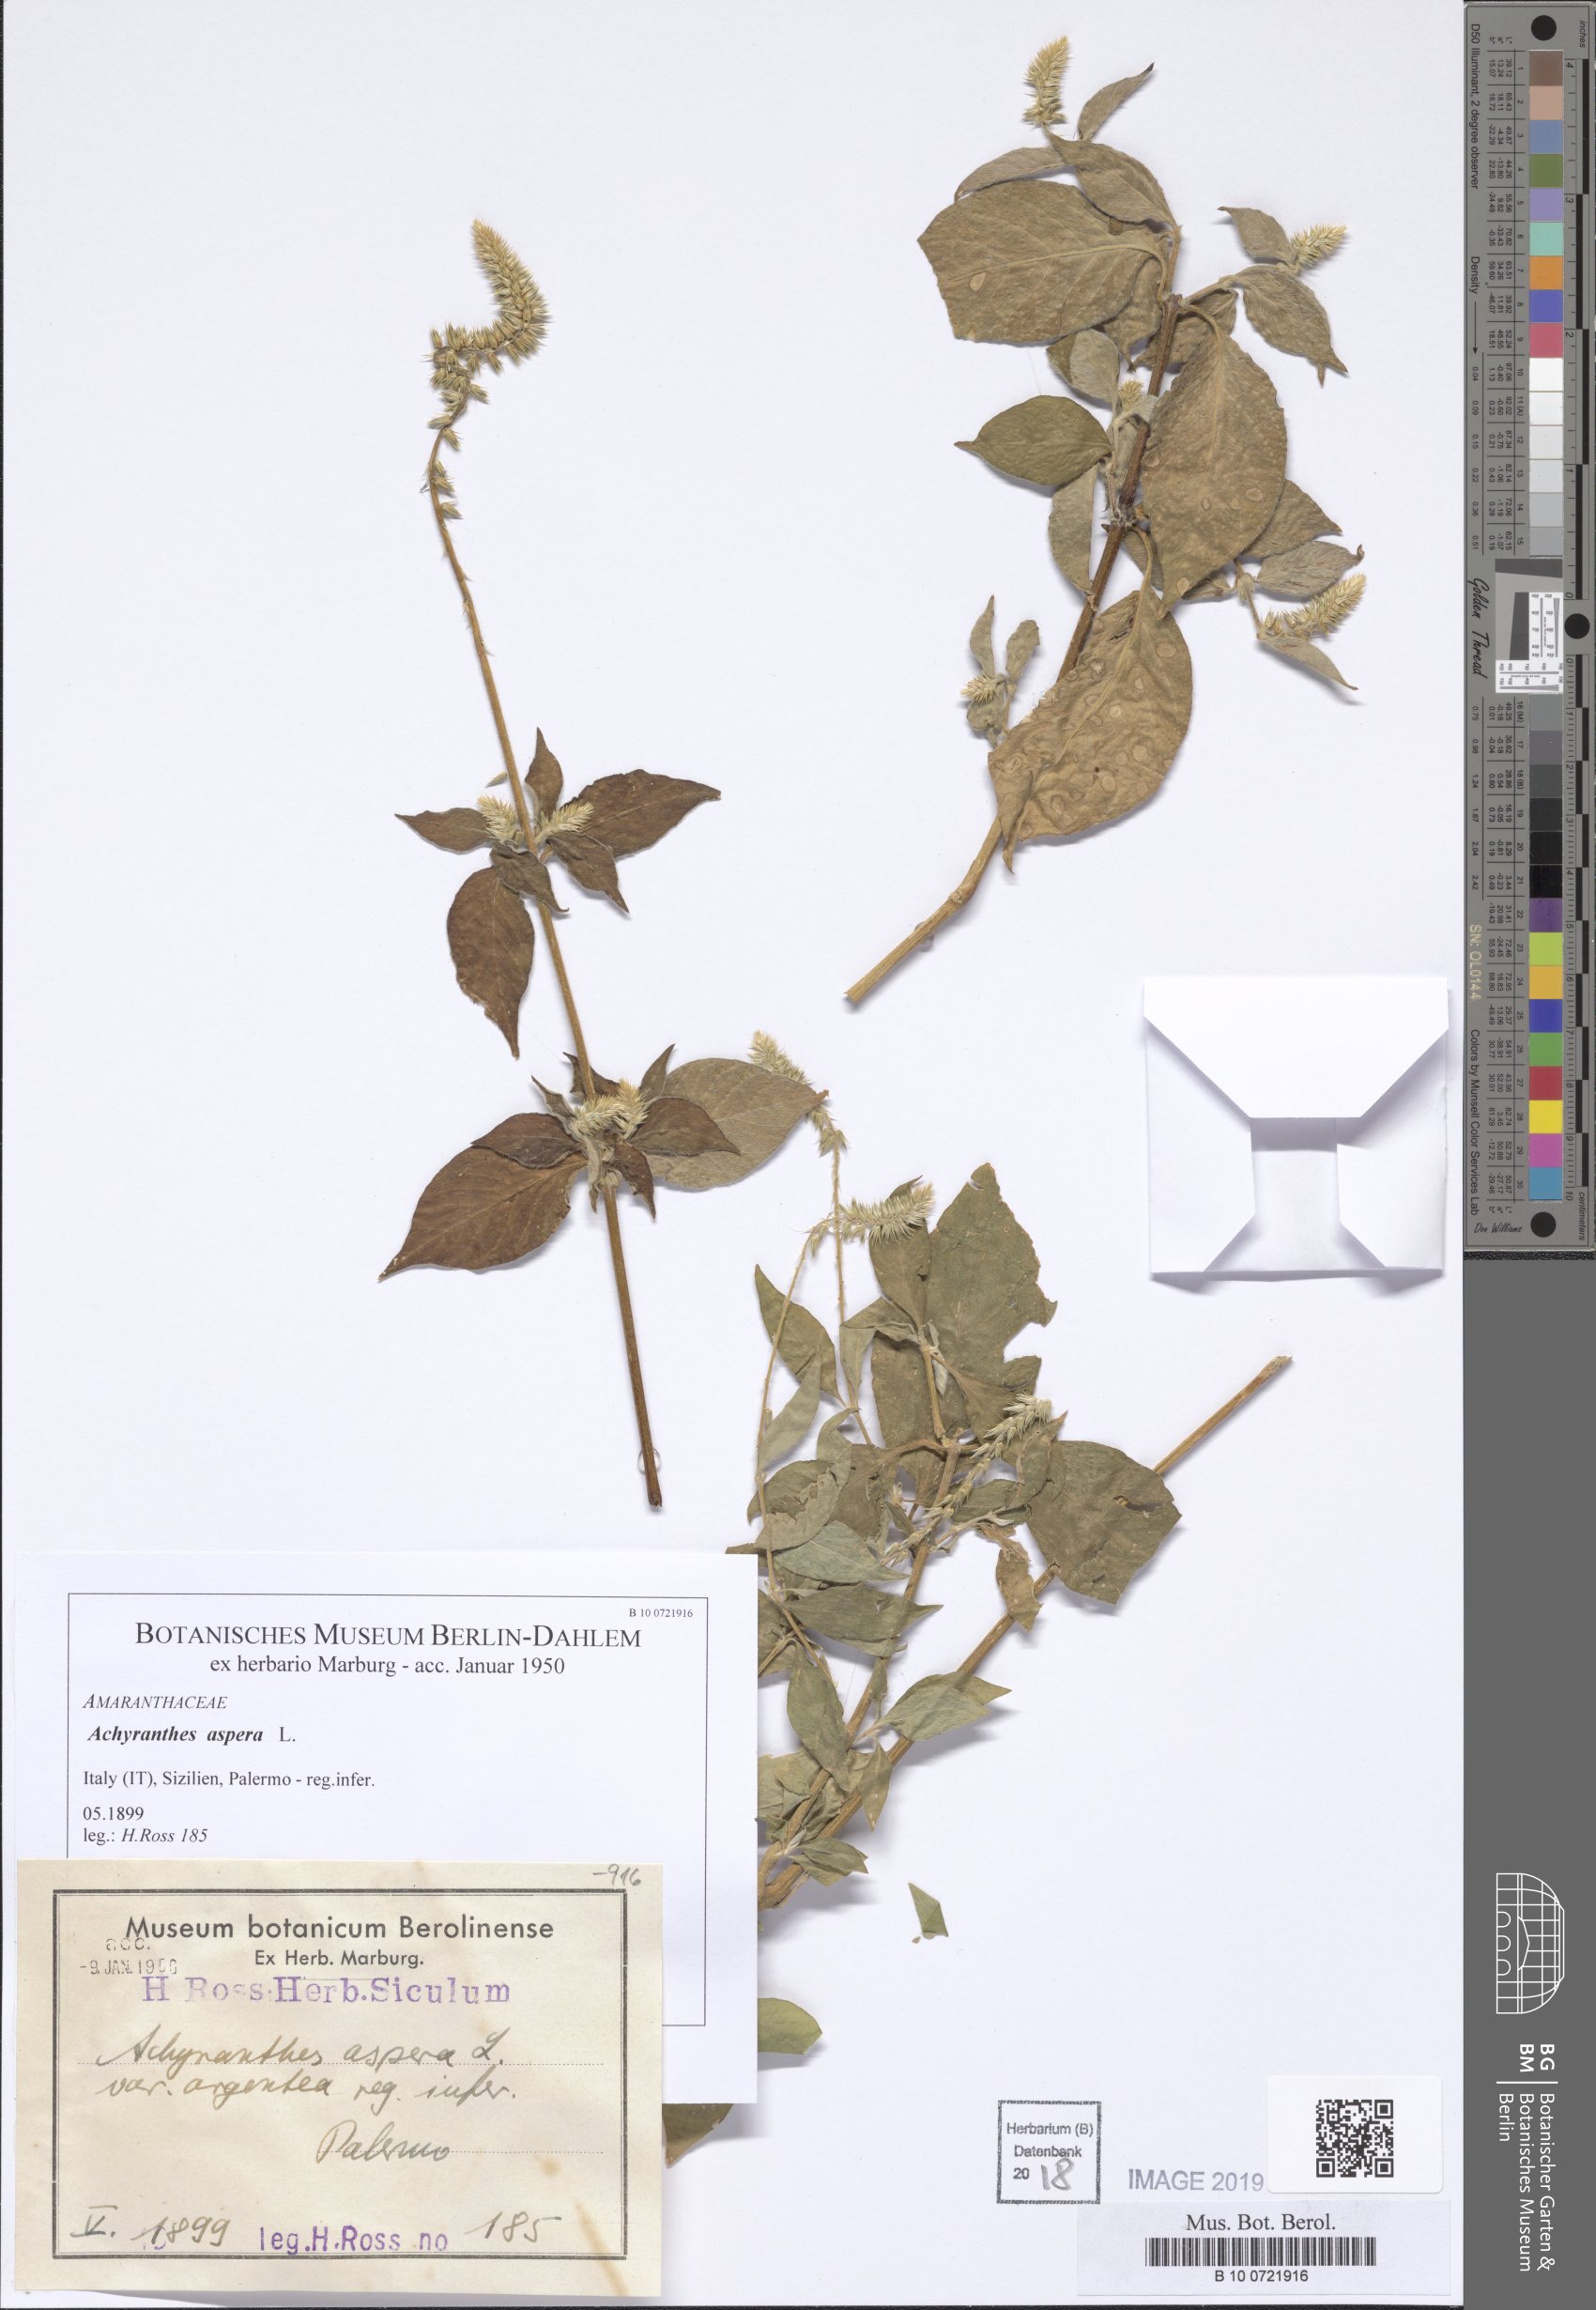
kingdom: Plantae
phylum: Tracheophyta
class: Magnoliopsida
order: Caryophyllales
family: Amaranthaceae
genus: Achyranthes
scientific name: Achyranthes aspera
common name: Devil's horsewhip
